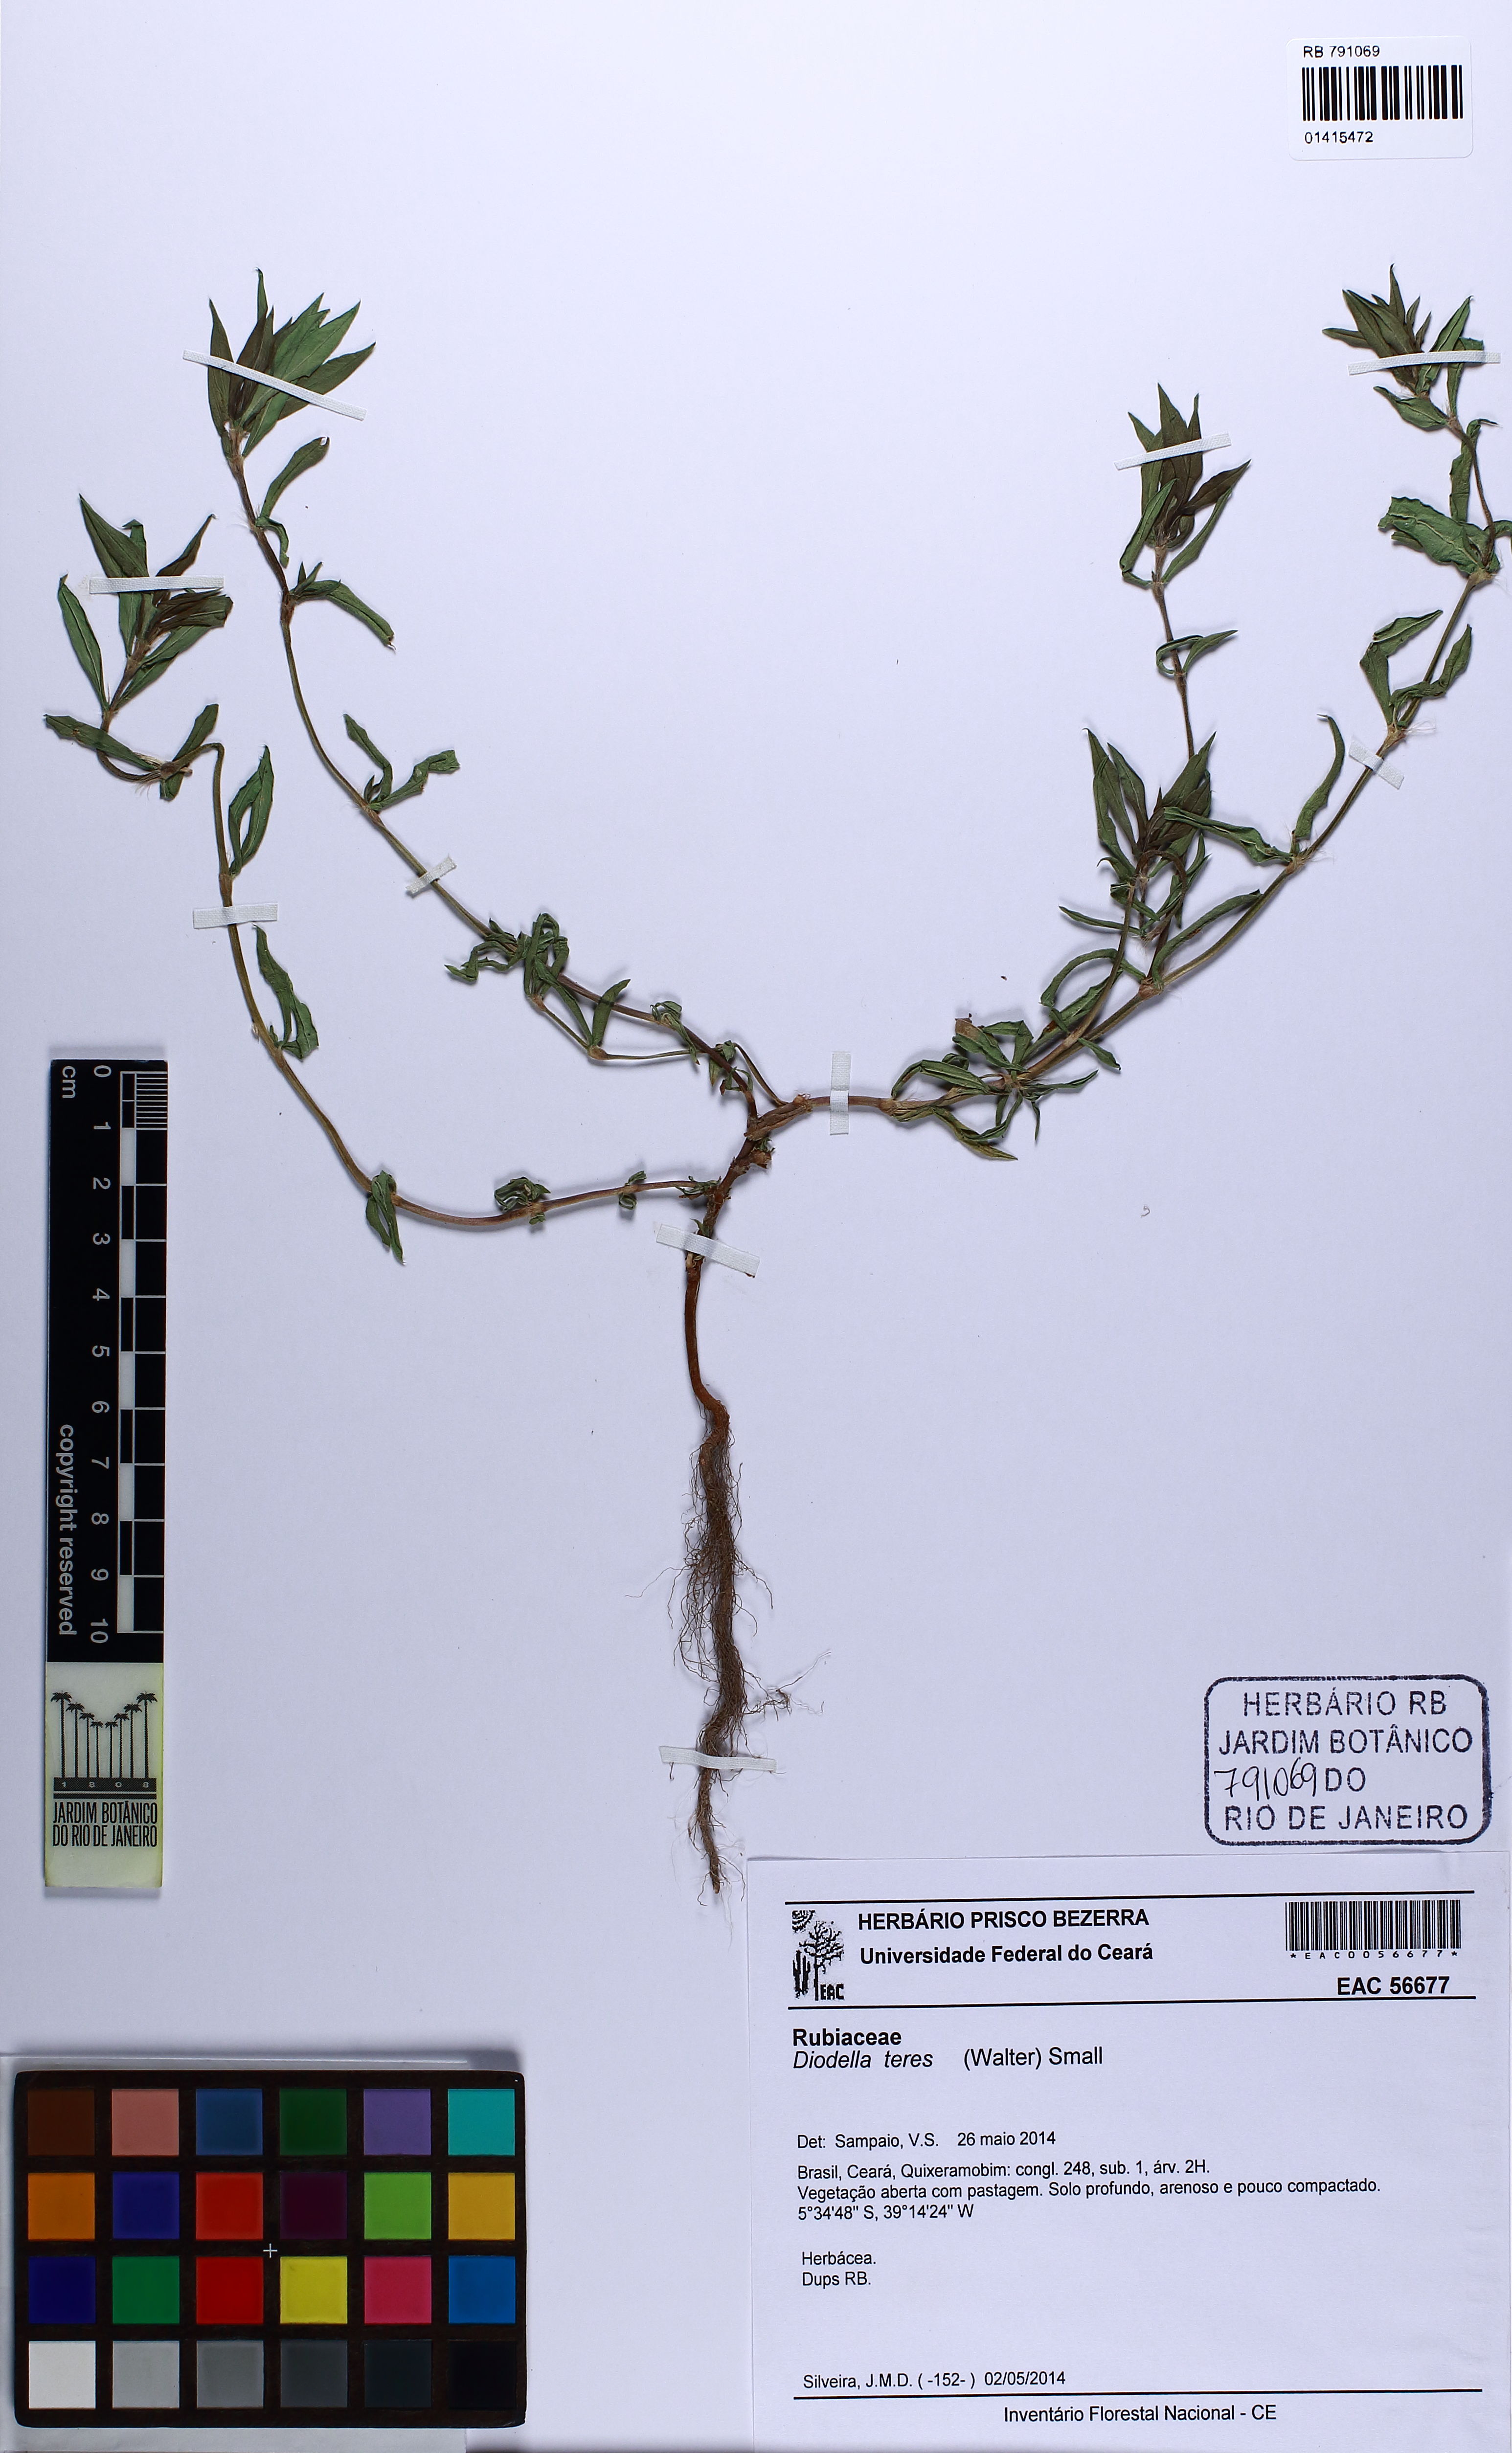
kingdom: Plantae
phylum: Tracheophyta
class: Magnoliopsida
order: Gentianales
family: Rubiaceae
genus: Hexasepalum
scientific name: Hexasepalum teres
